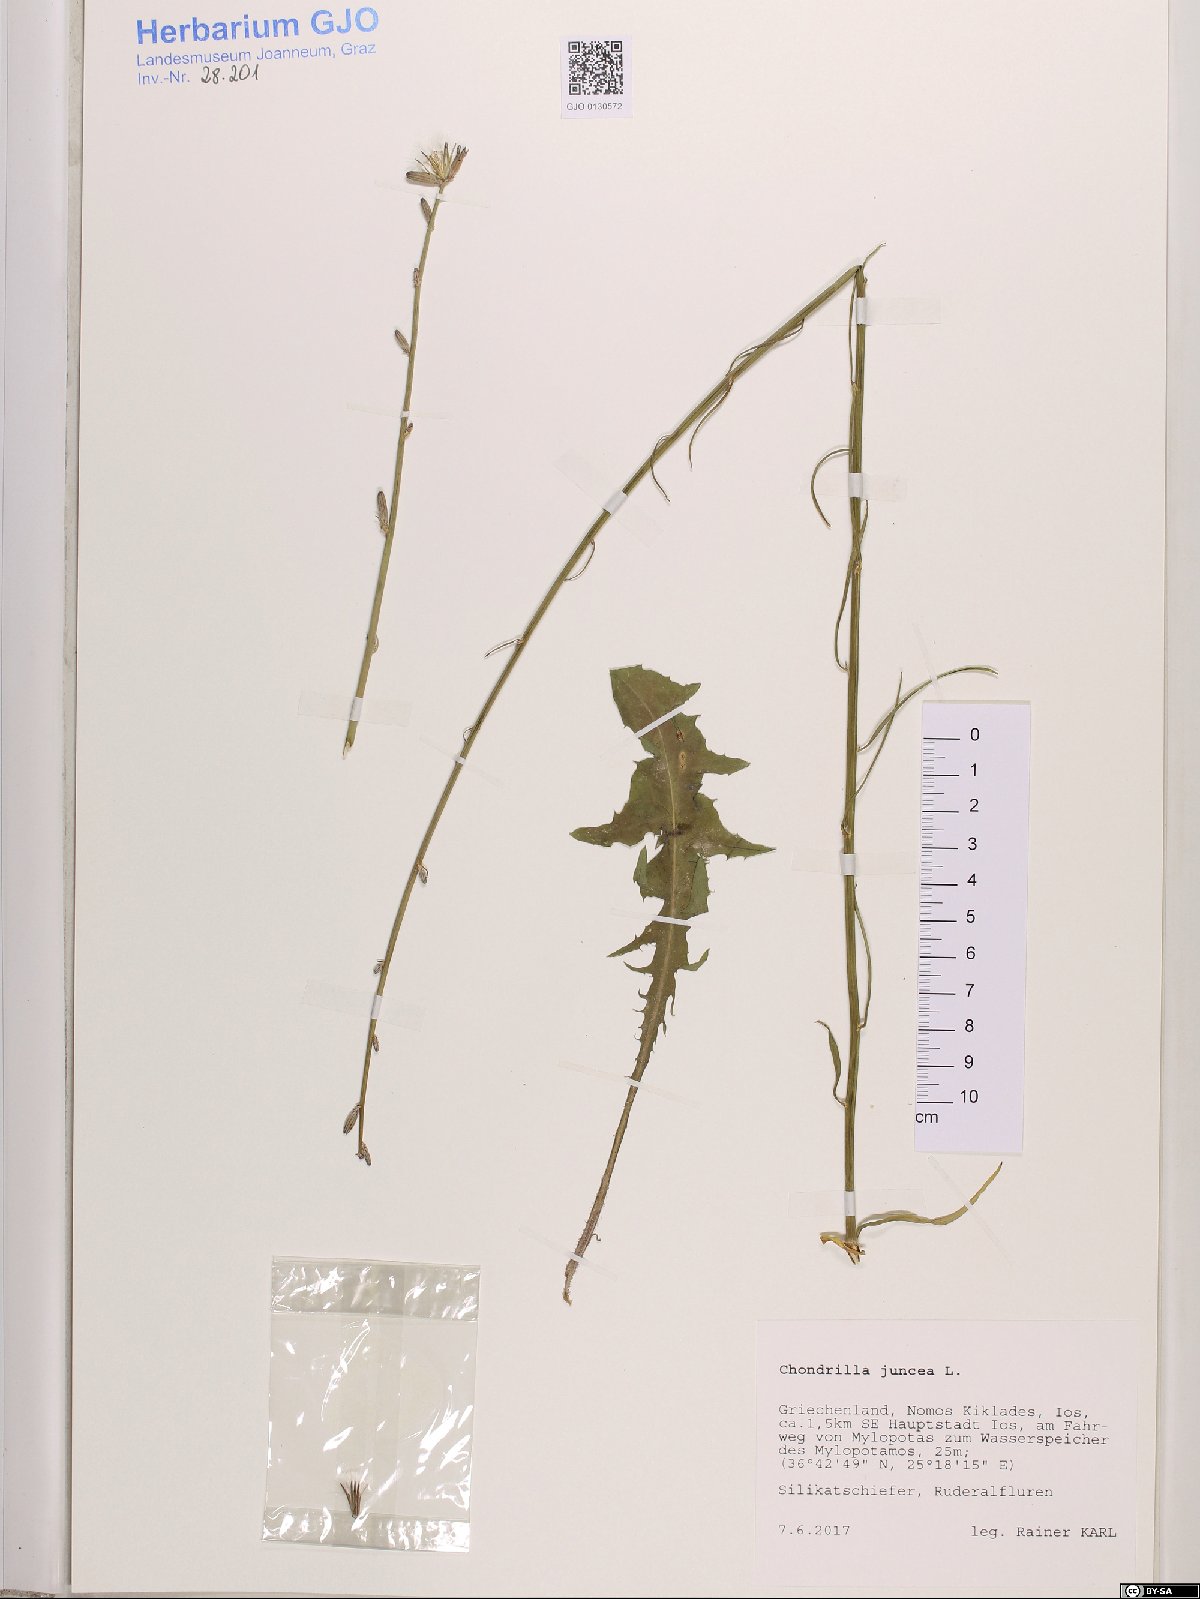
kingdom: Plantae
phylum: Tracheophyta
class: Magnoliopsida
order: Asterales
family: Asteraceae
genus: Chondrilla
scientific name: Chondrilla juncea
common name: Skeleton weed
